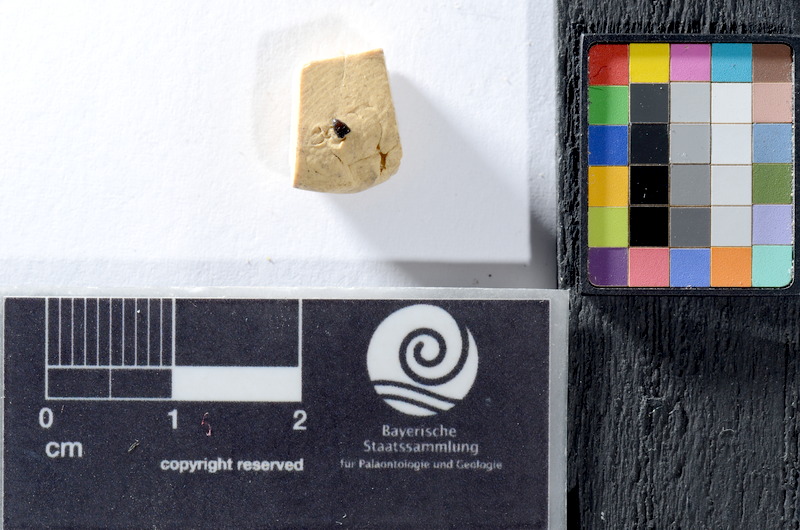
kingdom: Animalia
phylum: Chordata
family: Dapediidae
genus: Dapedium
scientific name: Dapedium
